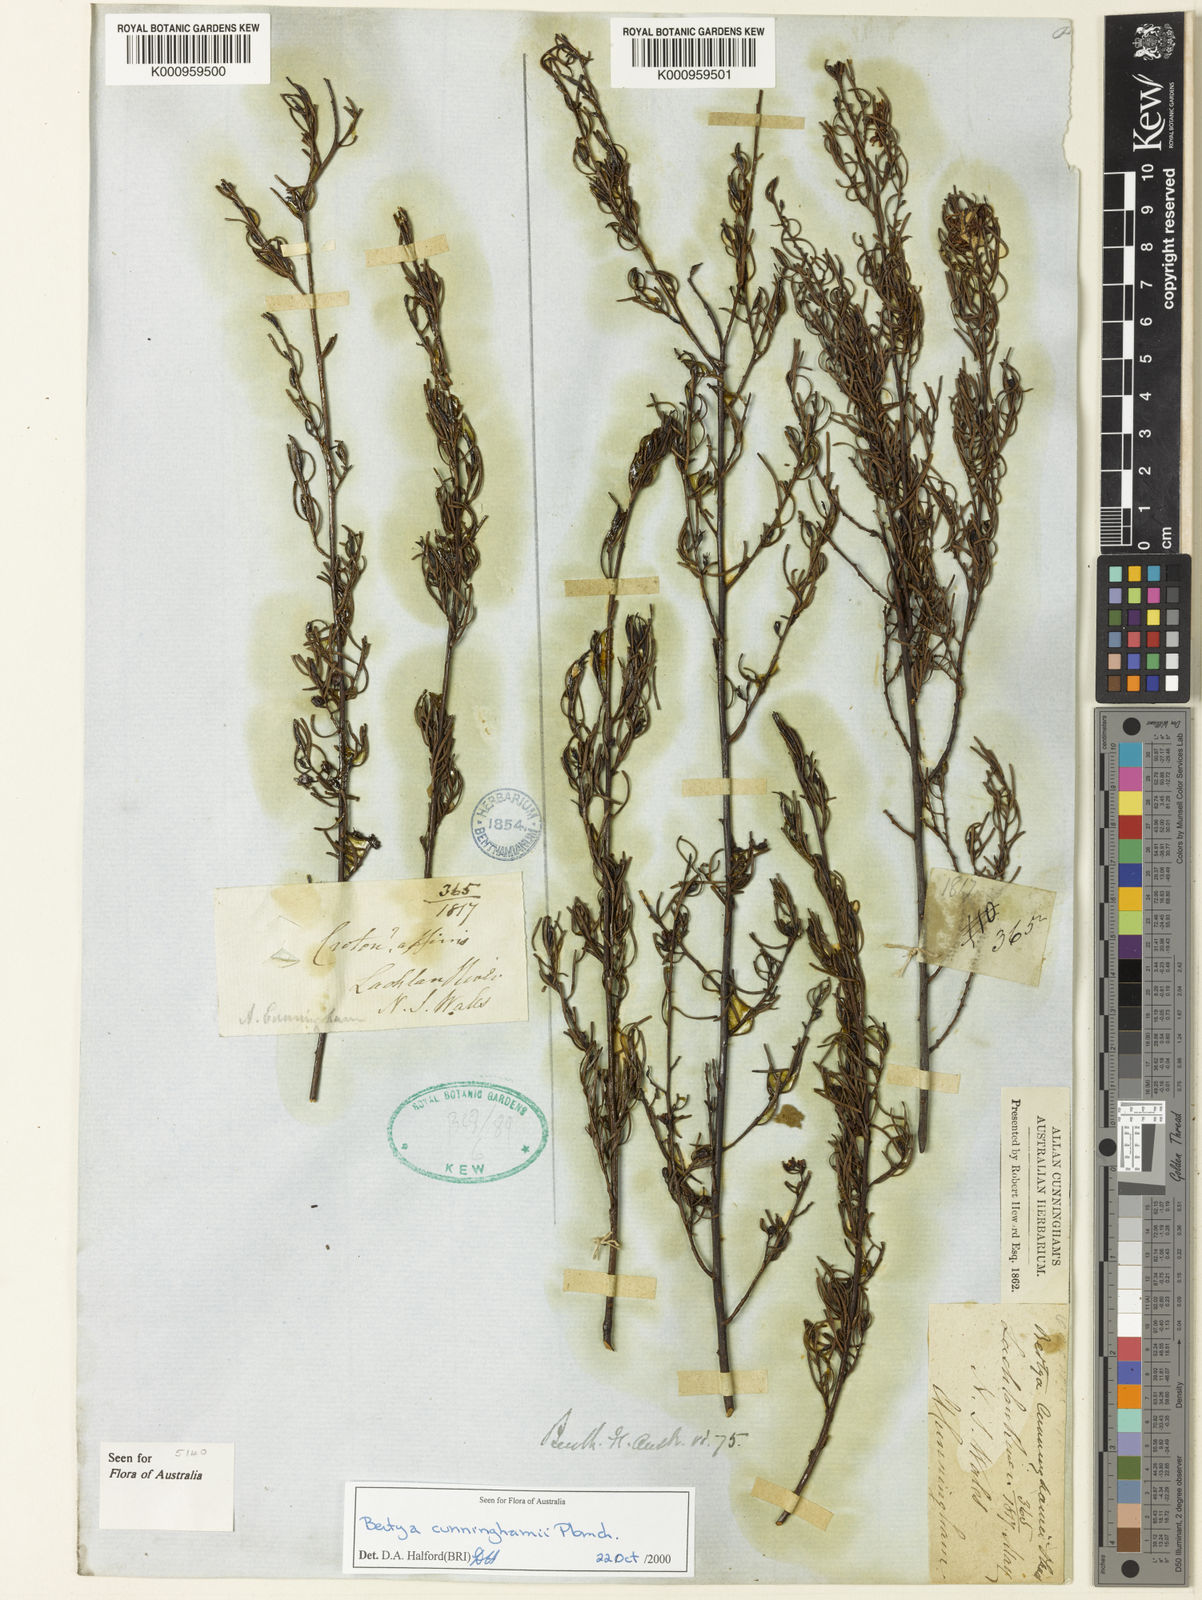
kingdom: Plantae
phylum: Tracheophyta
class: Magnoliopsida
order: Malpighiales
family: Euphorbiaceae
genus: Bertya
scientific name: Bertya cunninghamii
